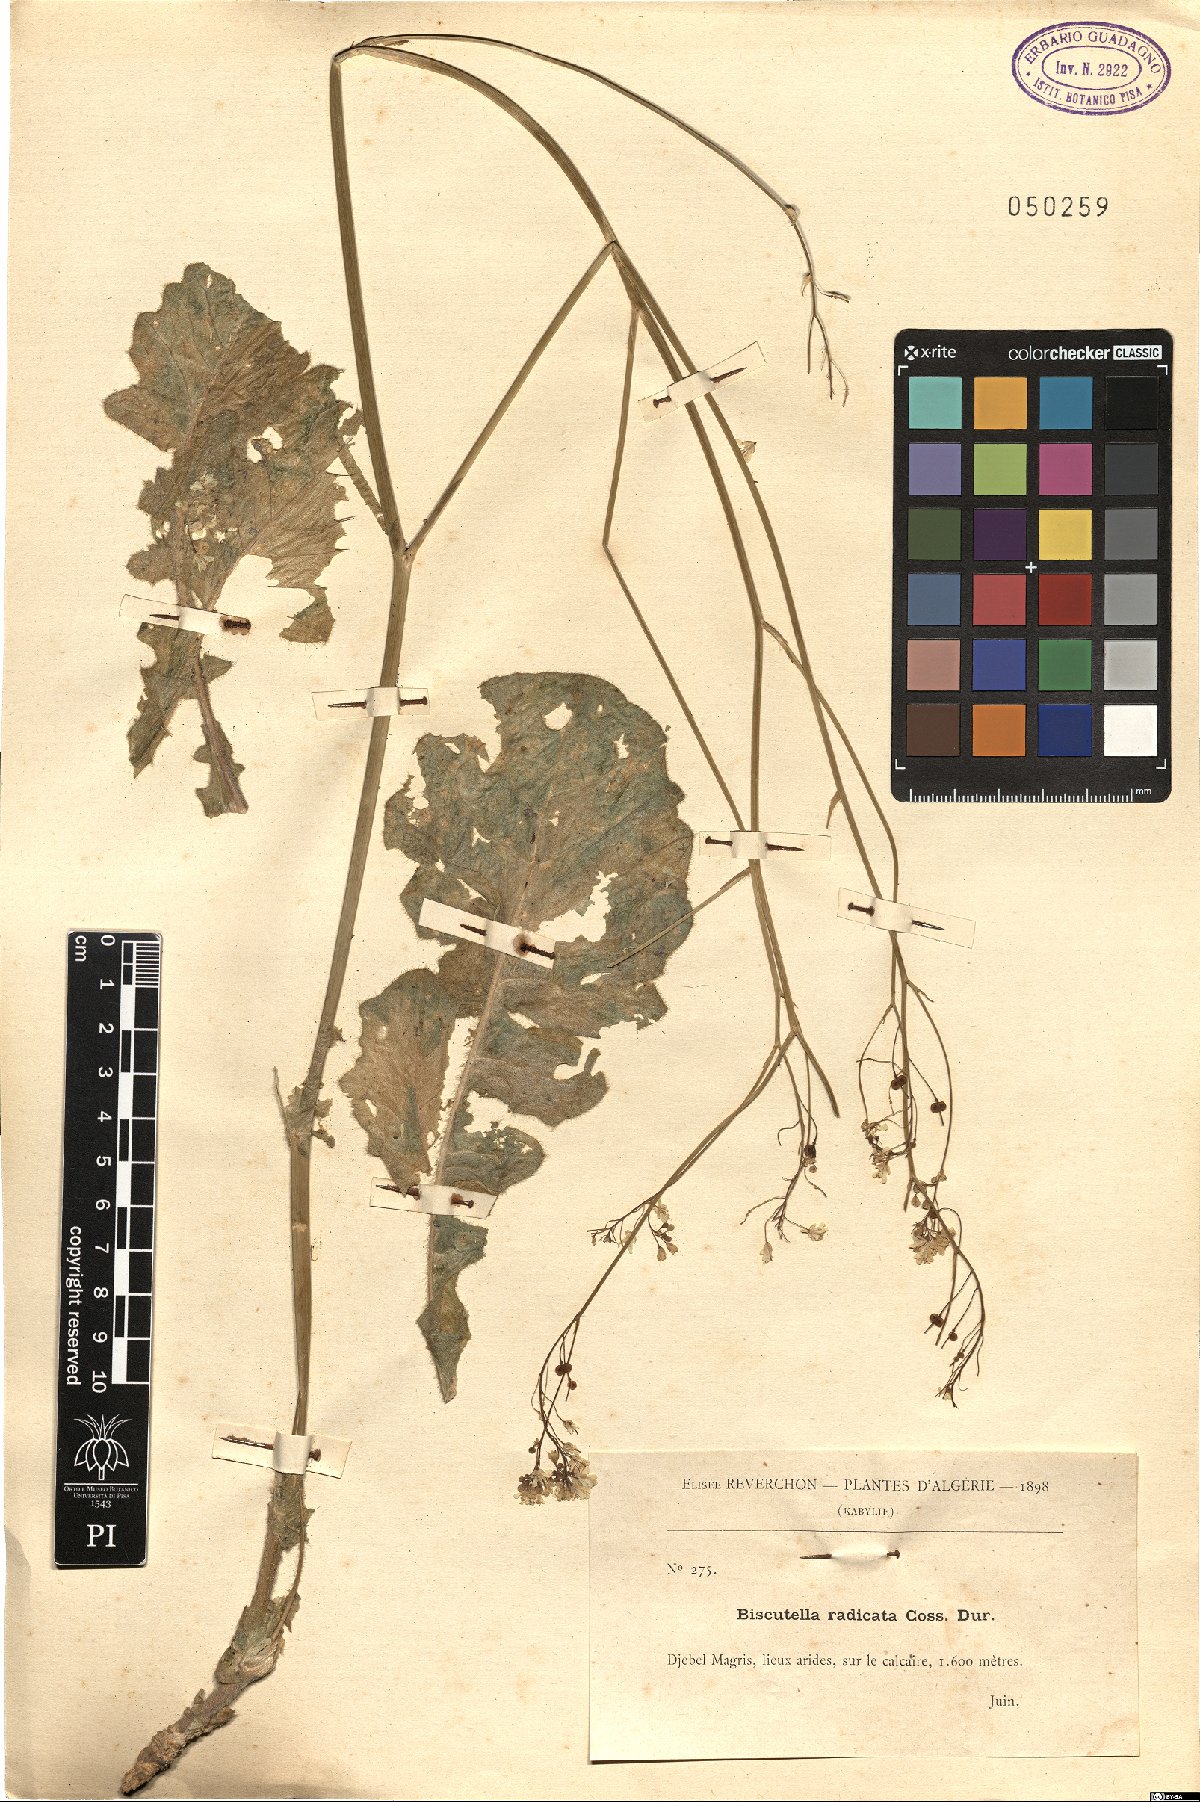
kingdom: Plantae
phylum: Tracheophyta
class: Magnoliopsida
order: Brassicales
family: Brassicaceae
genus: Biscutella
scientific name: Biscutella raphanifolia
